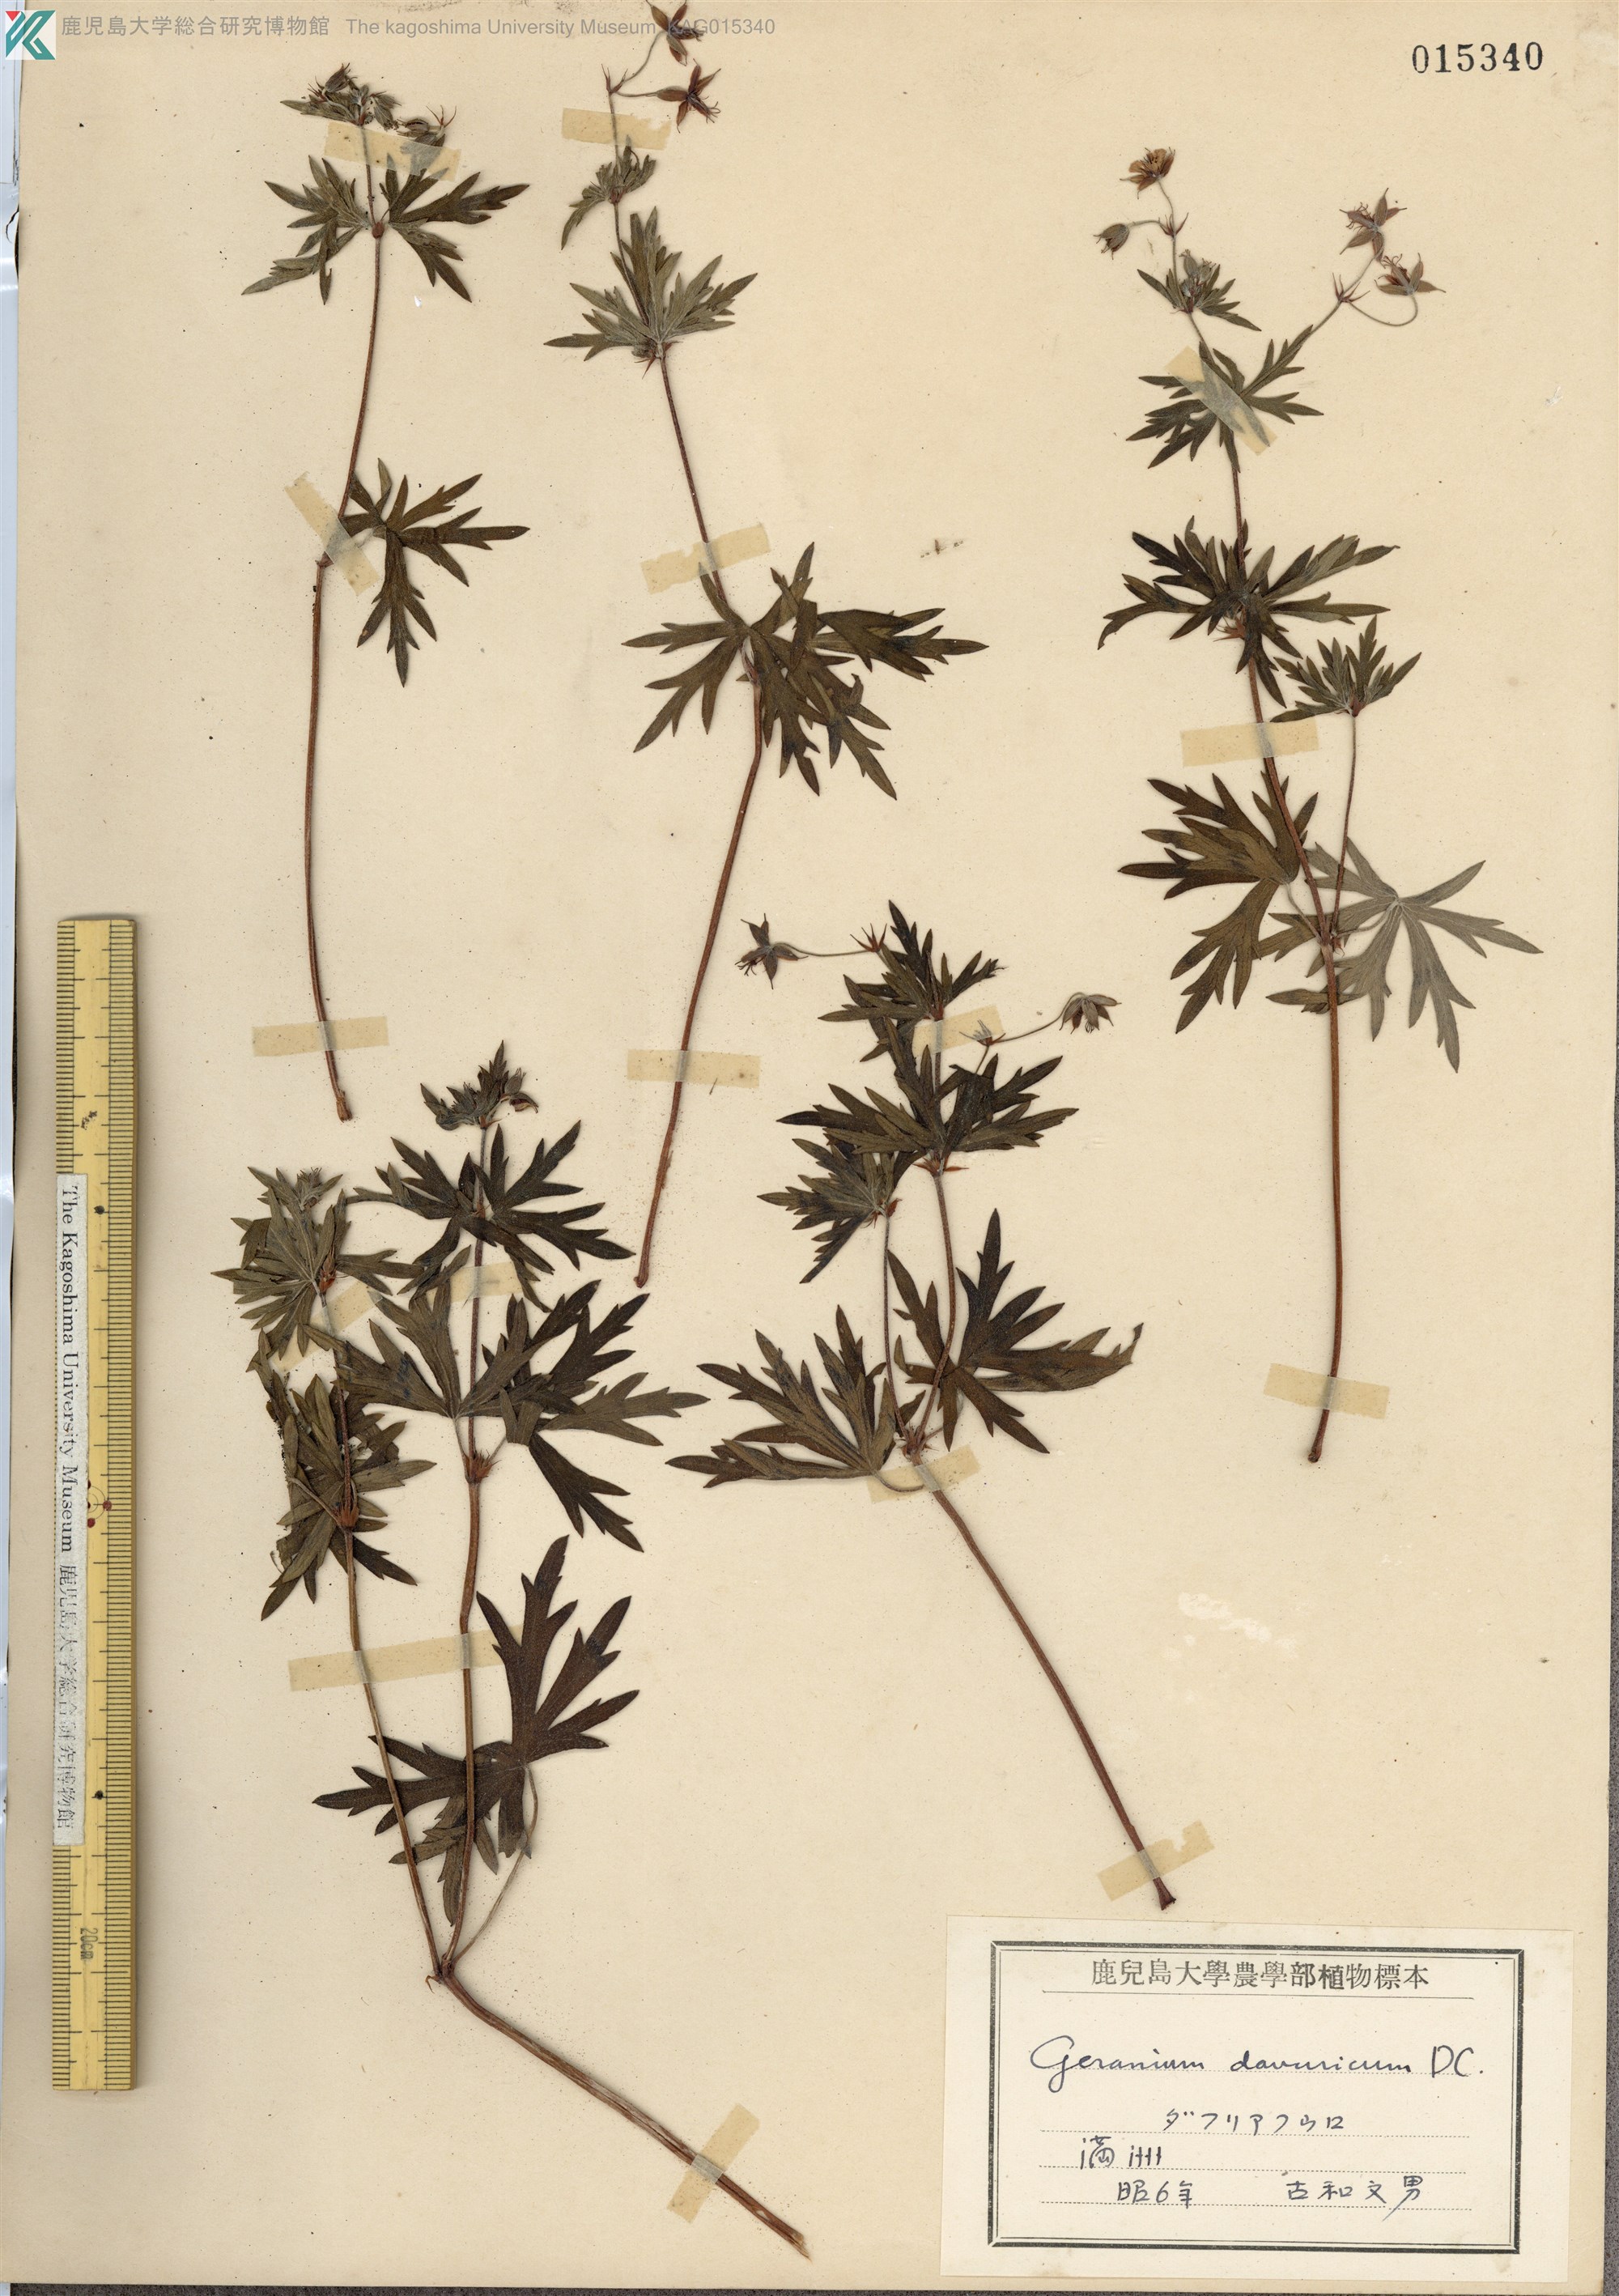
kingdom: Plantae
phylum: Tracheophyta
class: Magnoliopsida
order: Geraniales
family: Geraniaceae
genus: Geranium
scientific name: Geranium dahuricum
